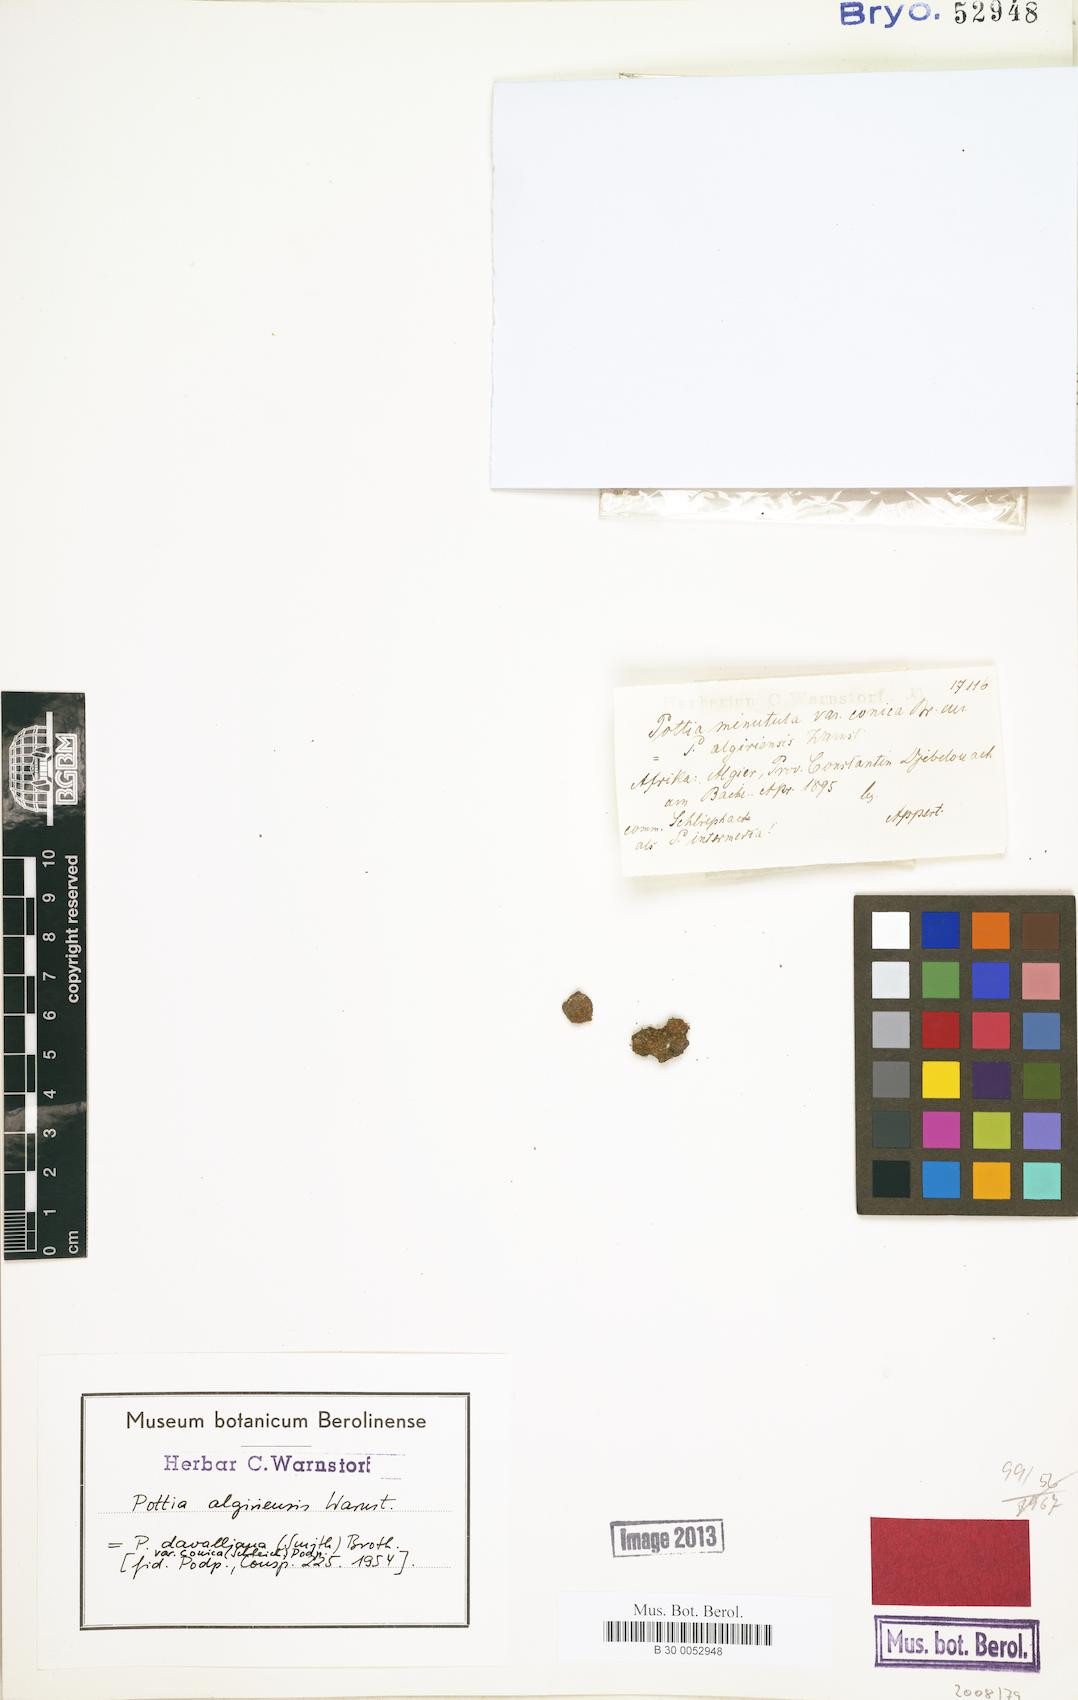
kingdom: Plantae
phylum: Bryophyta
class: Bryopsida
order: Pottiales
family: Pottiaceae
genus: Microbryum
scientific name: Microbryum davallianum
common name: Smallest pottia
